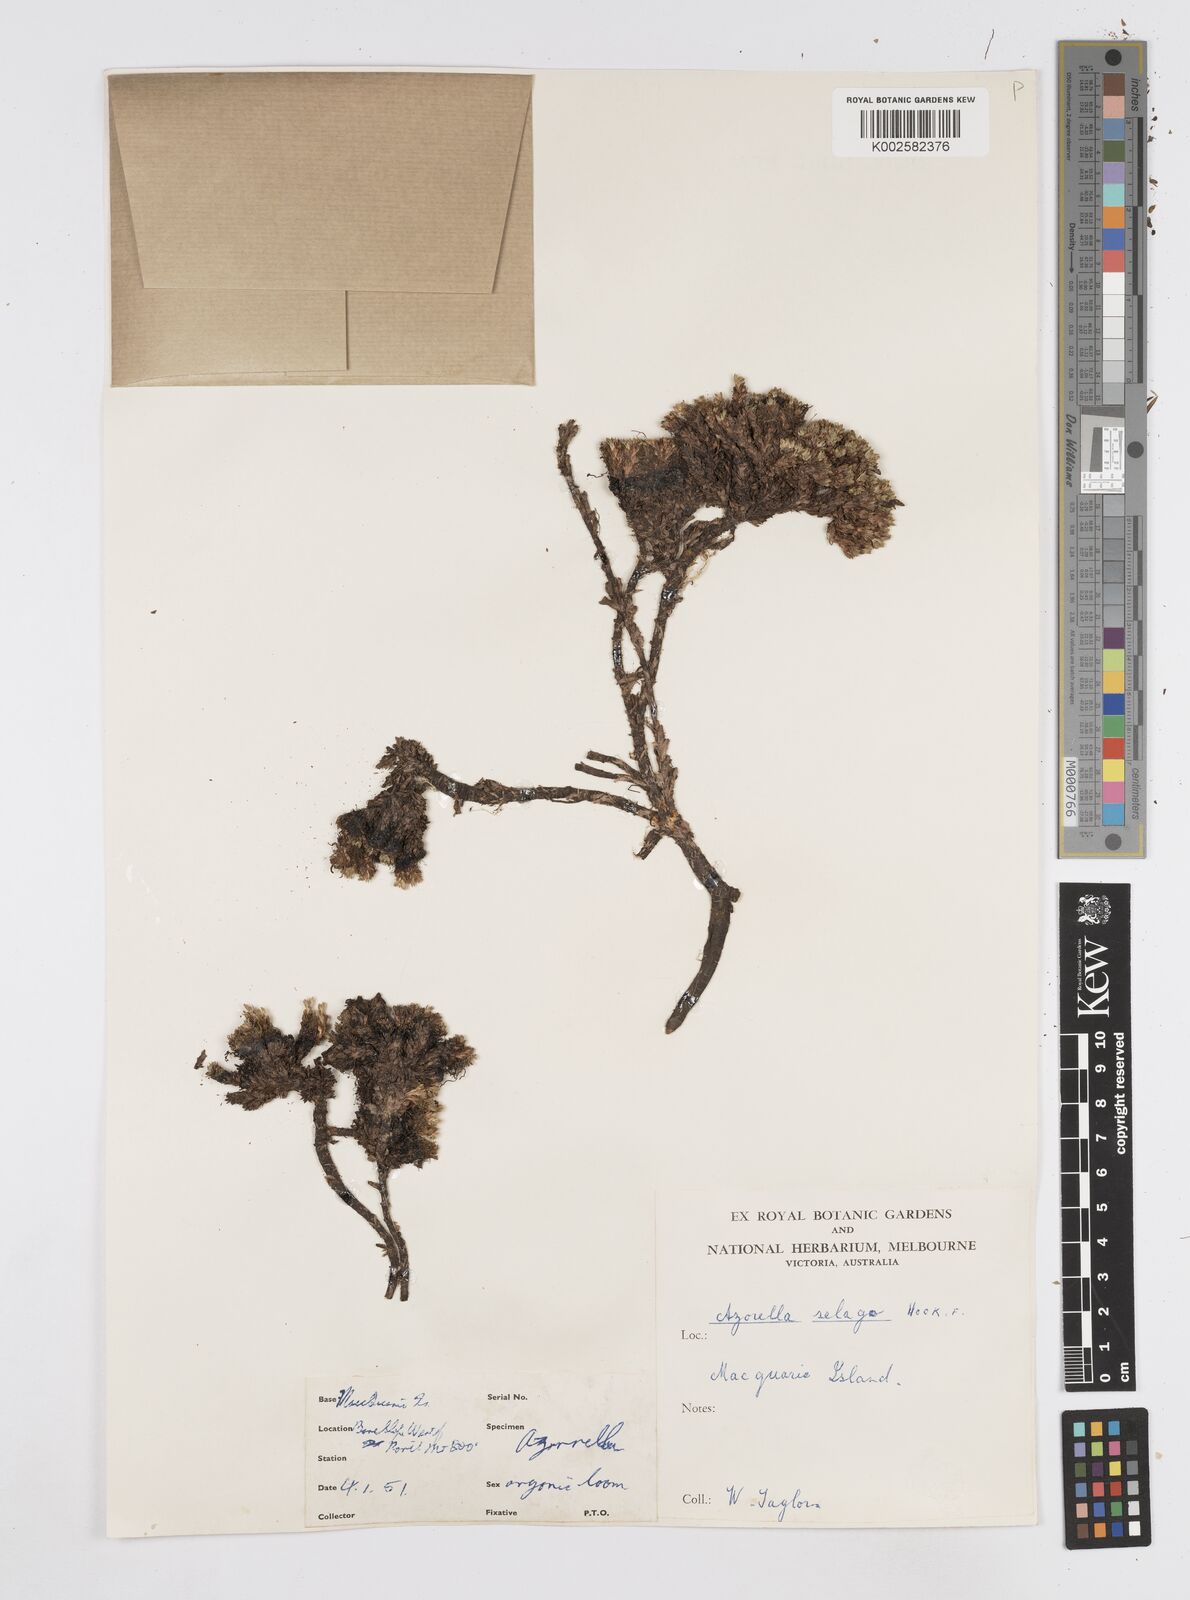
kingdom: Plantae
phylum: Tracheophyta
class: Magnoliopsida
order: Apiales
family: Apiaceae
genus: Azorella
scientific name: Azorella selago
